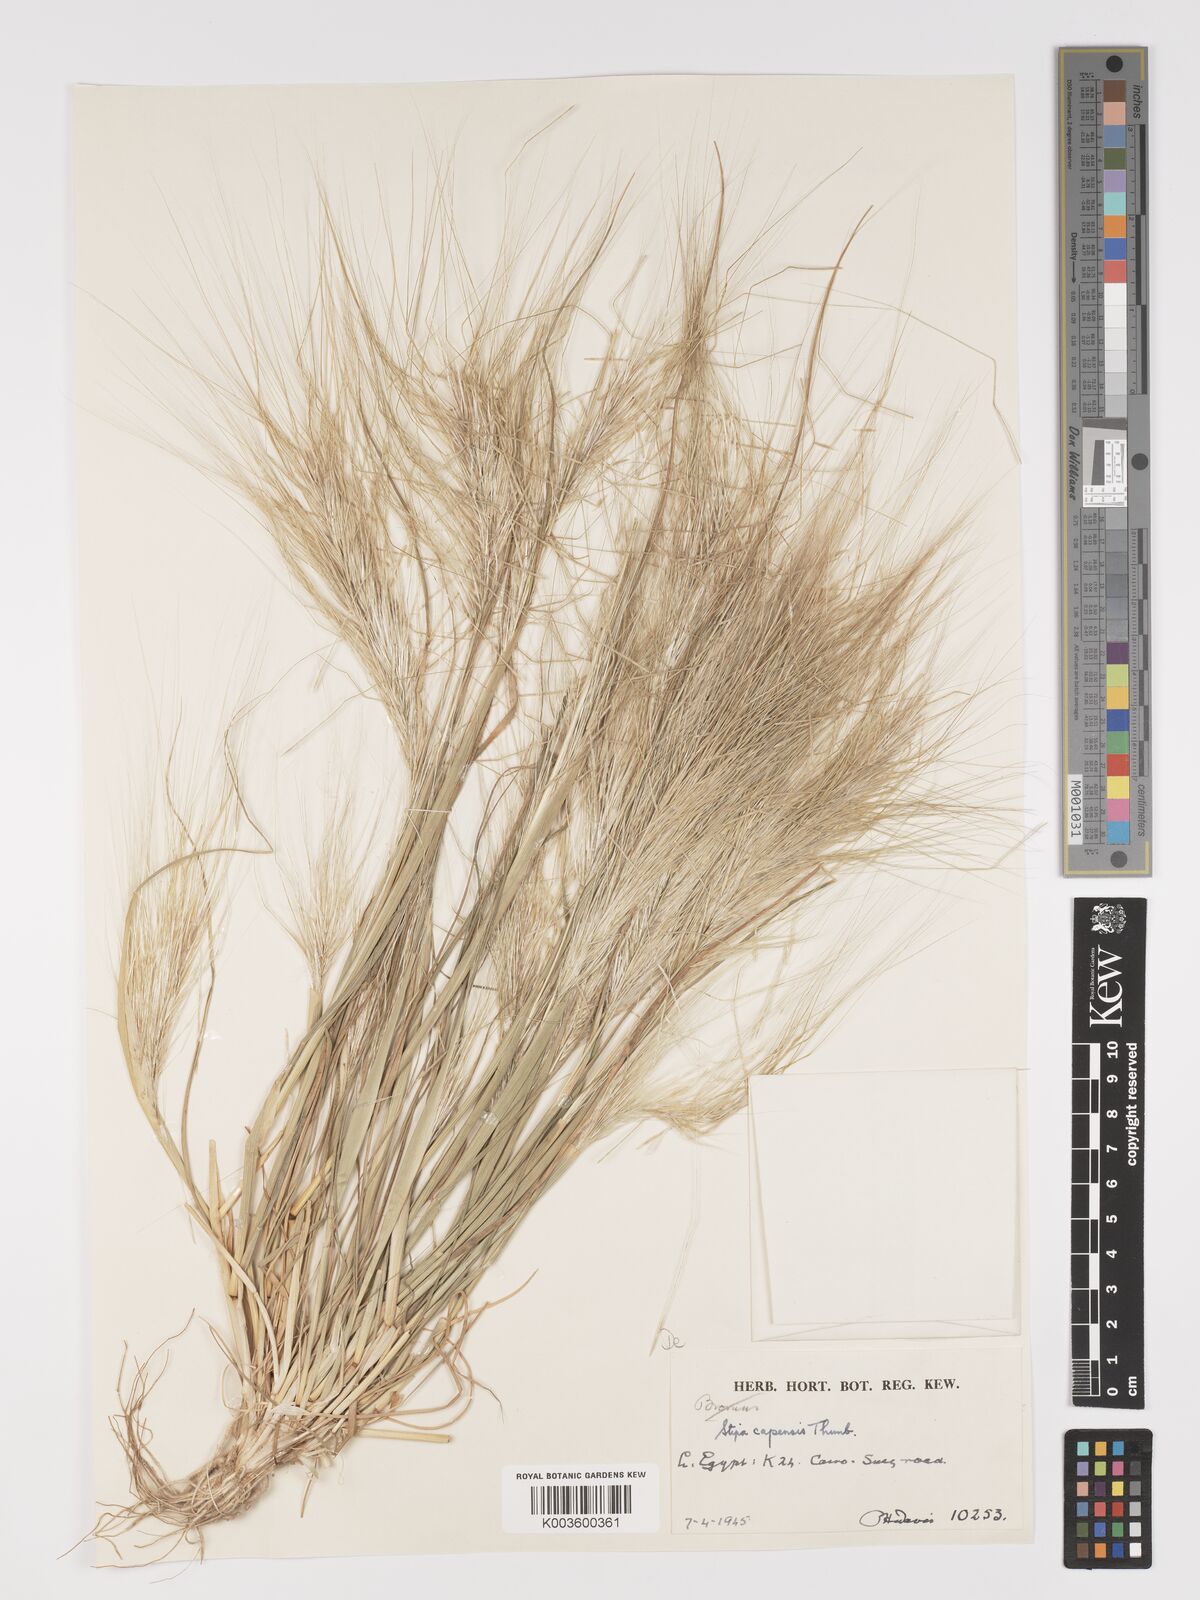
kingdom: Plantae
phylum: Tracheophyta
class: Liliopsida
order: Poales
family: Poaceae
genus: Stipellula
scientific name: Stipellula capensis
